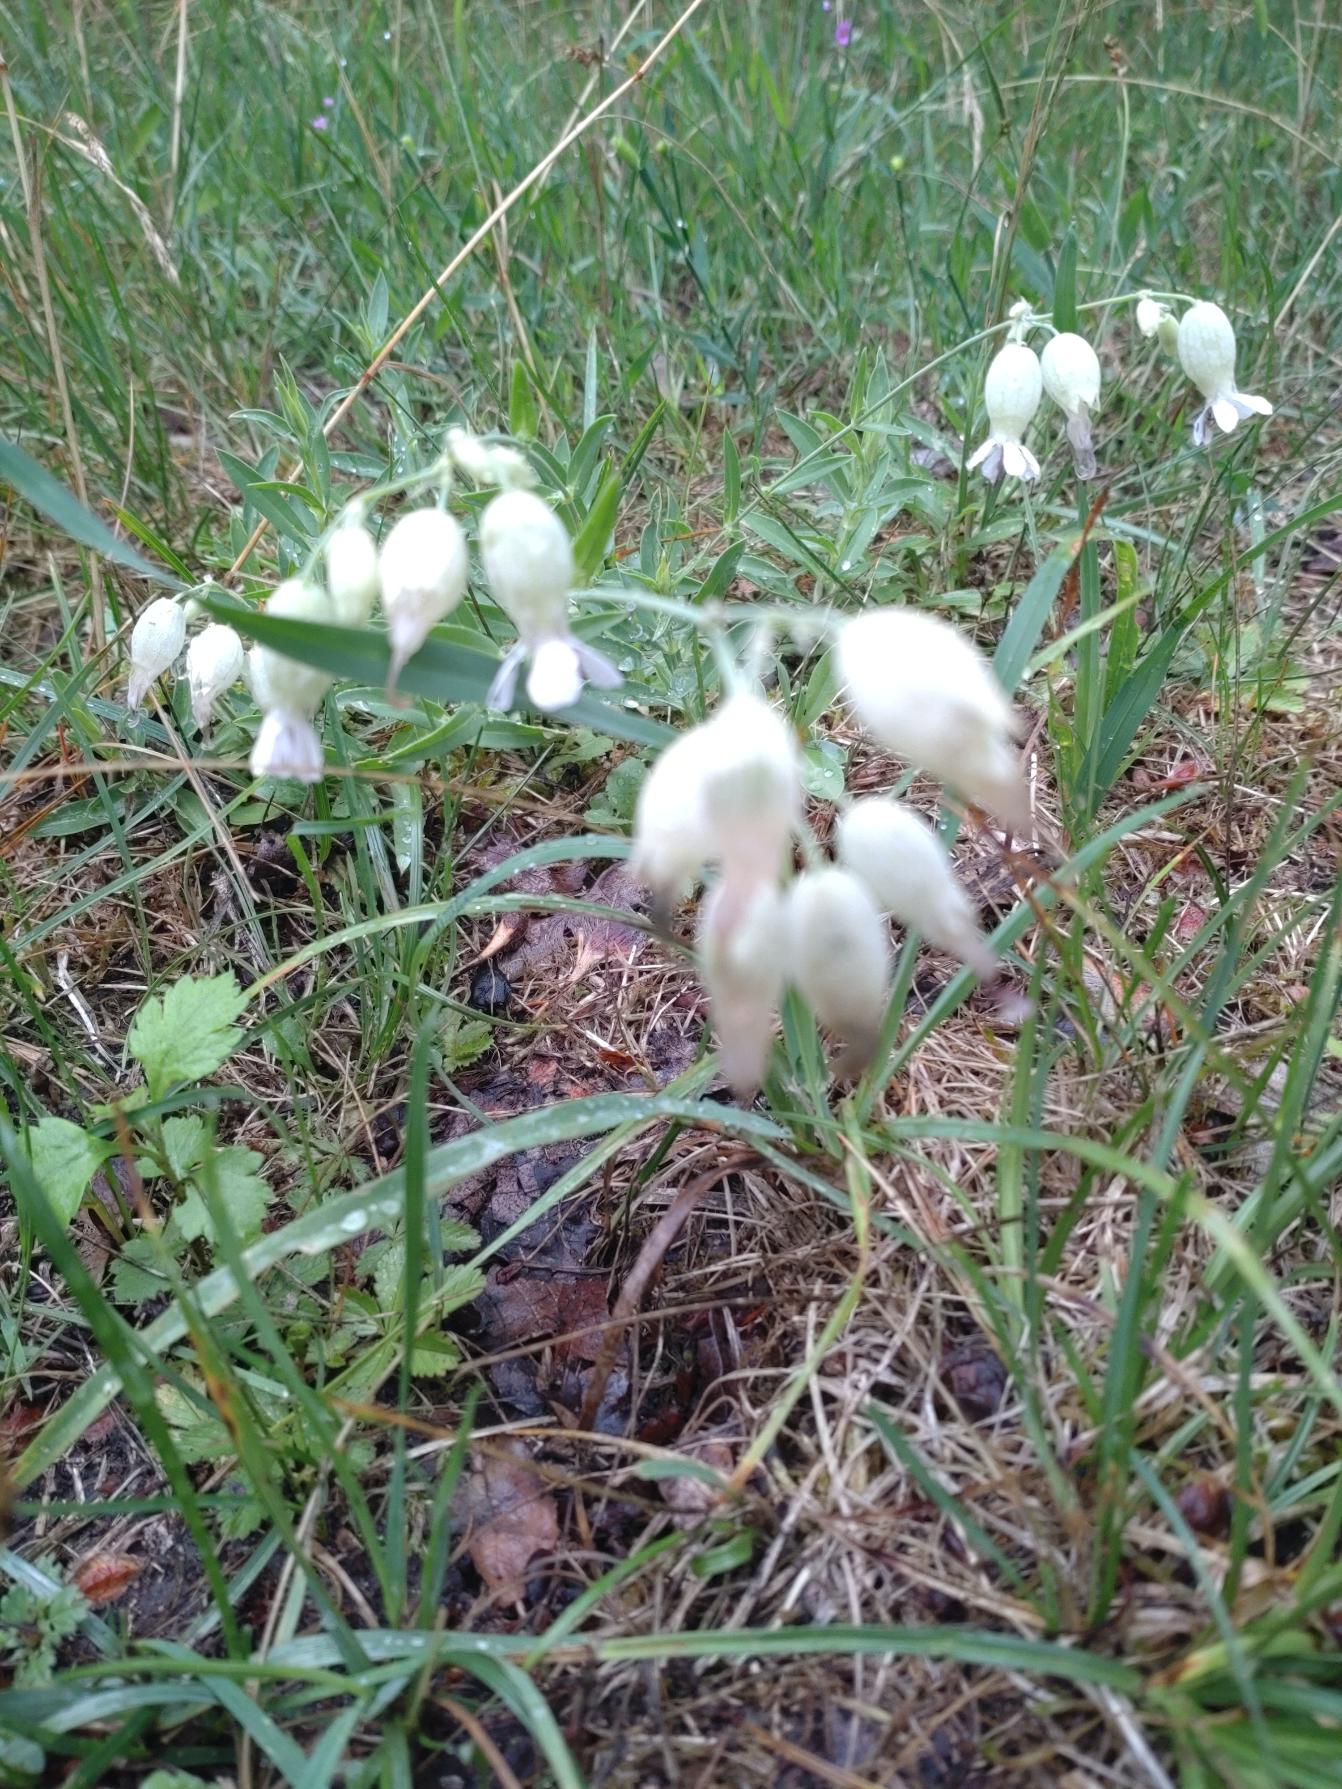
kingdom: Plantae
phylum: Tracheophyta
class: Magnoliopsida
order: Caryophyllales
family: Caryophyllaceae
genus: Silene
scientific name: Silene vulgaris
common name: Blæresmælde
